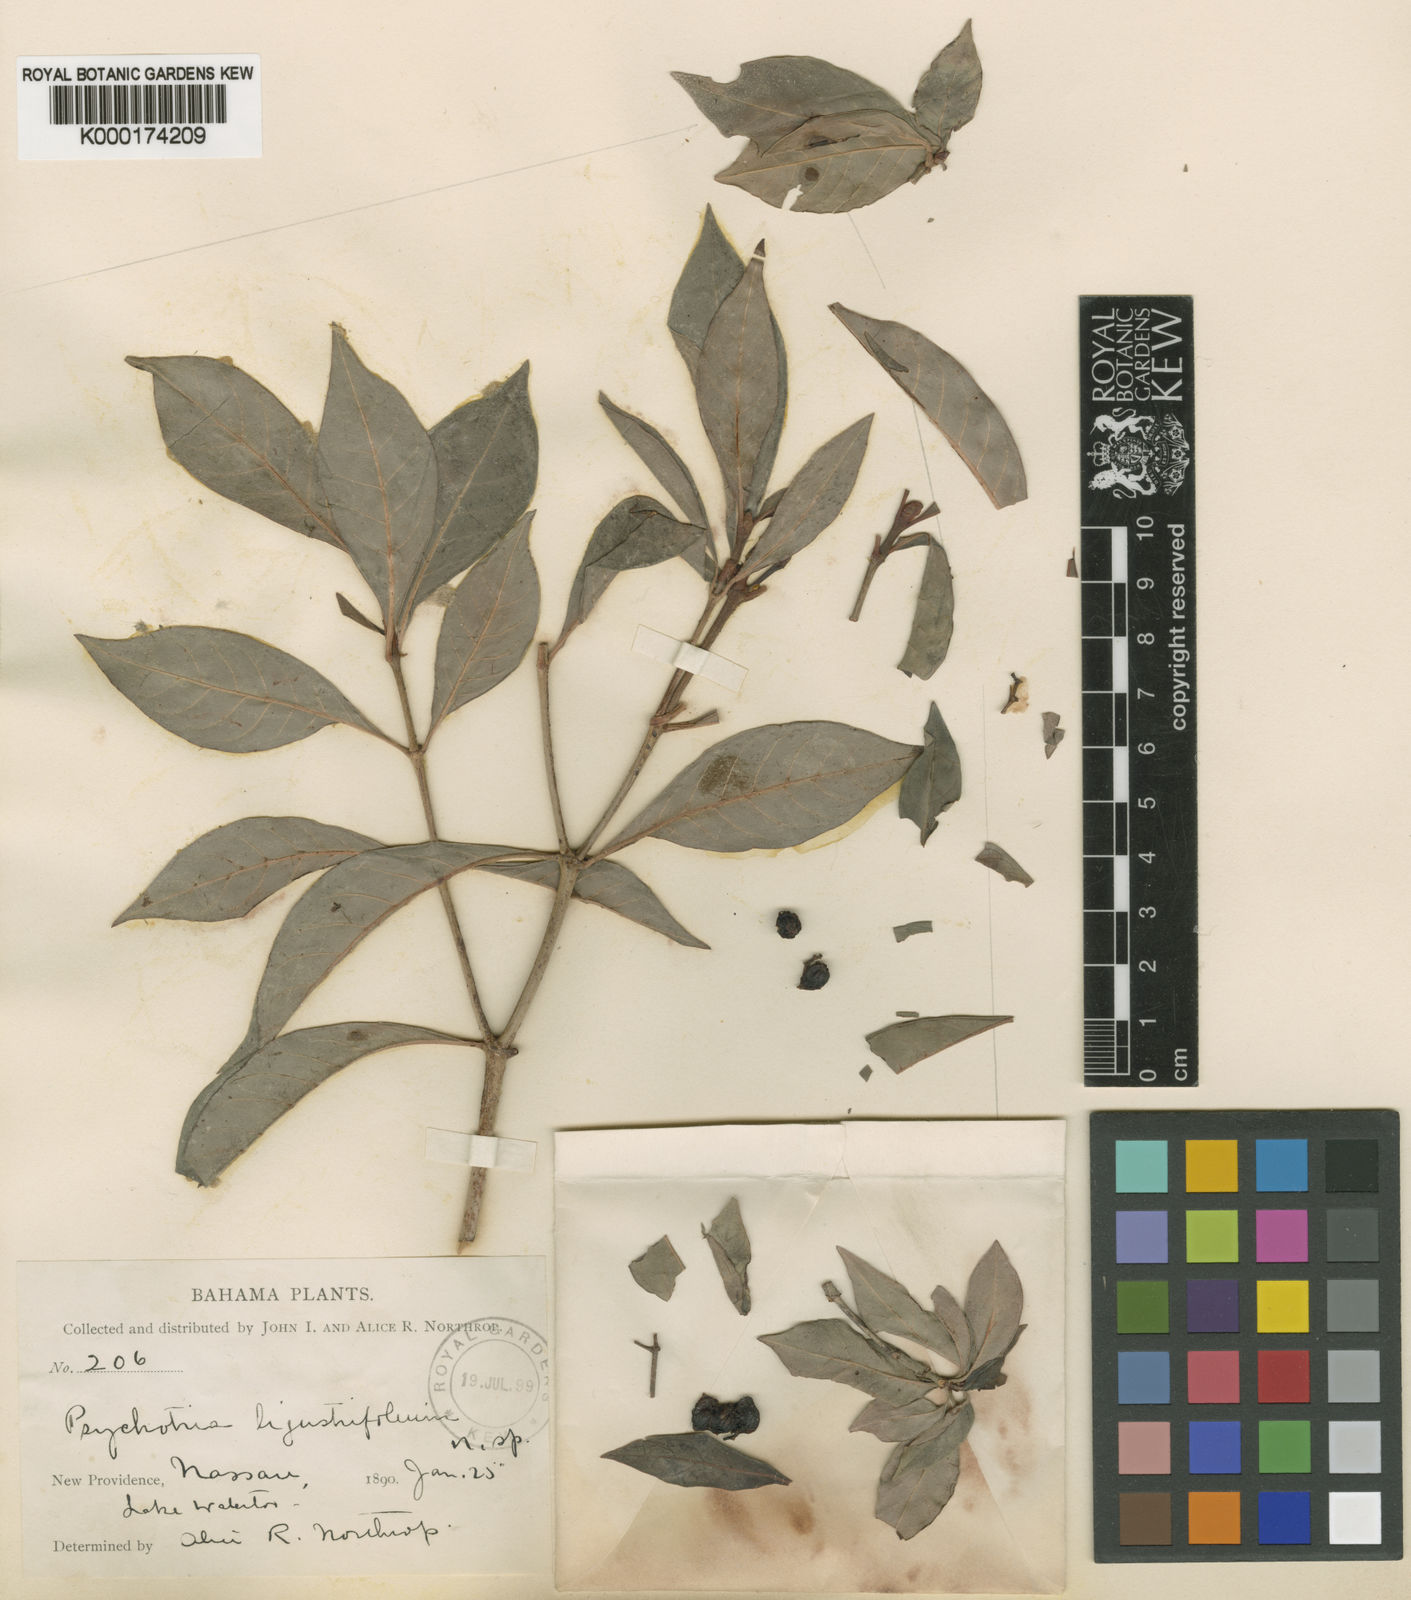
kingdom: Plantae
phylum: Tracheophyta
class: Magnoliopsida
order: Gentianales
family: Rubiaceae
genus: Psychotria
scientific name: Psychotria ligustrifolia
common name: Bahama wild coffee
